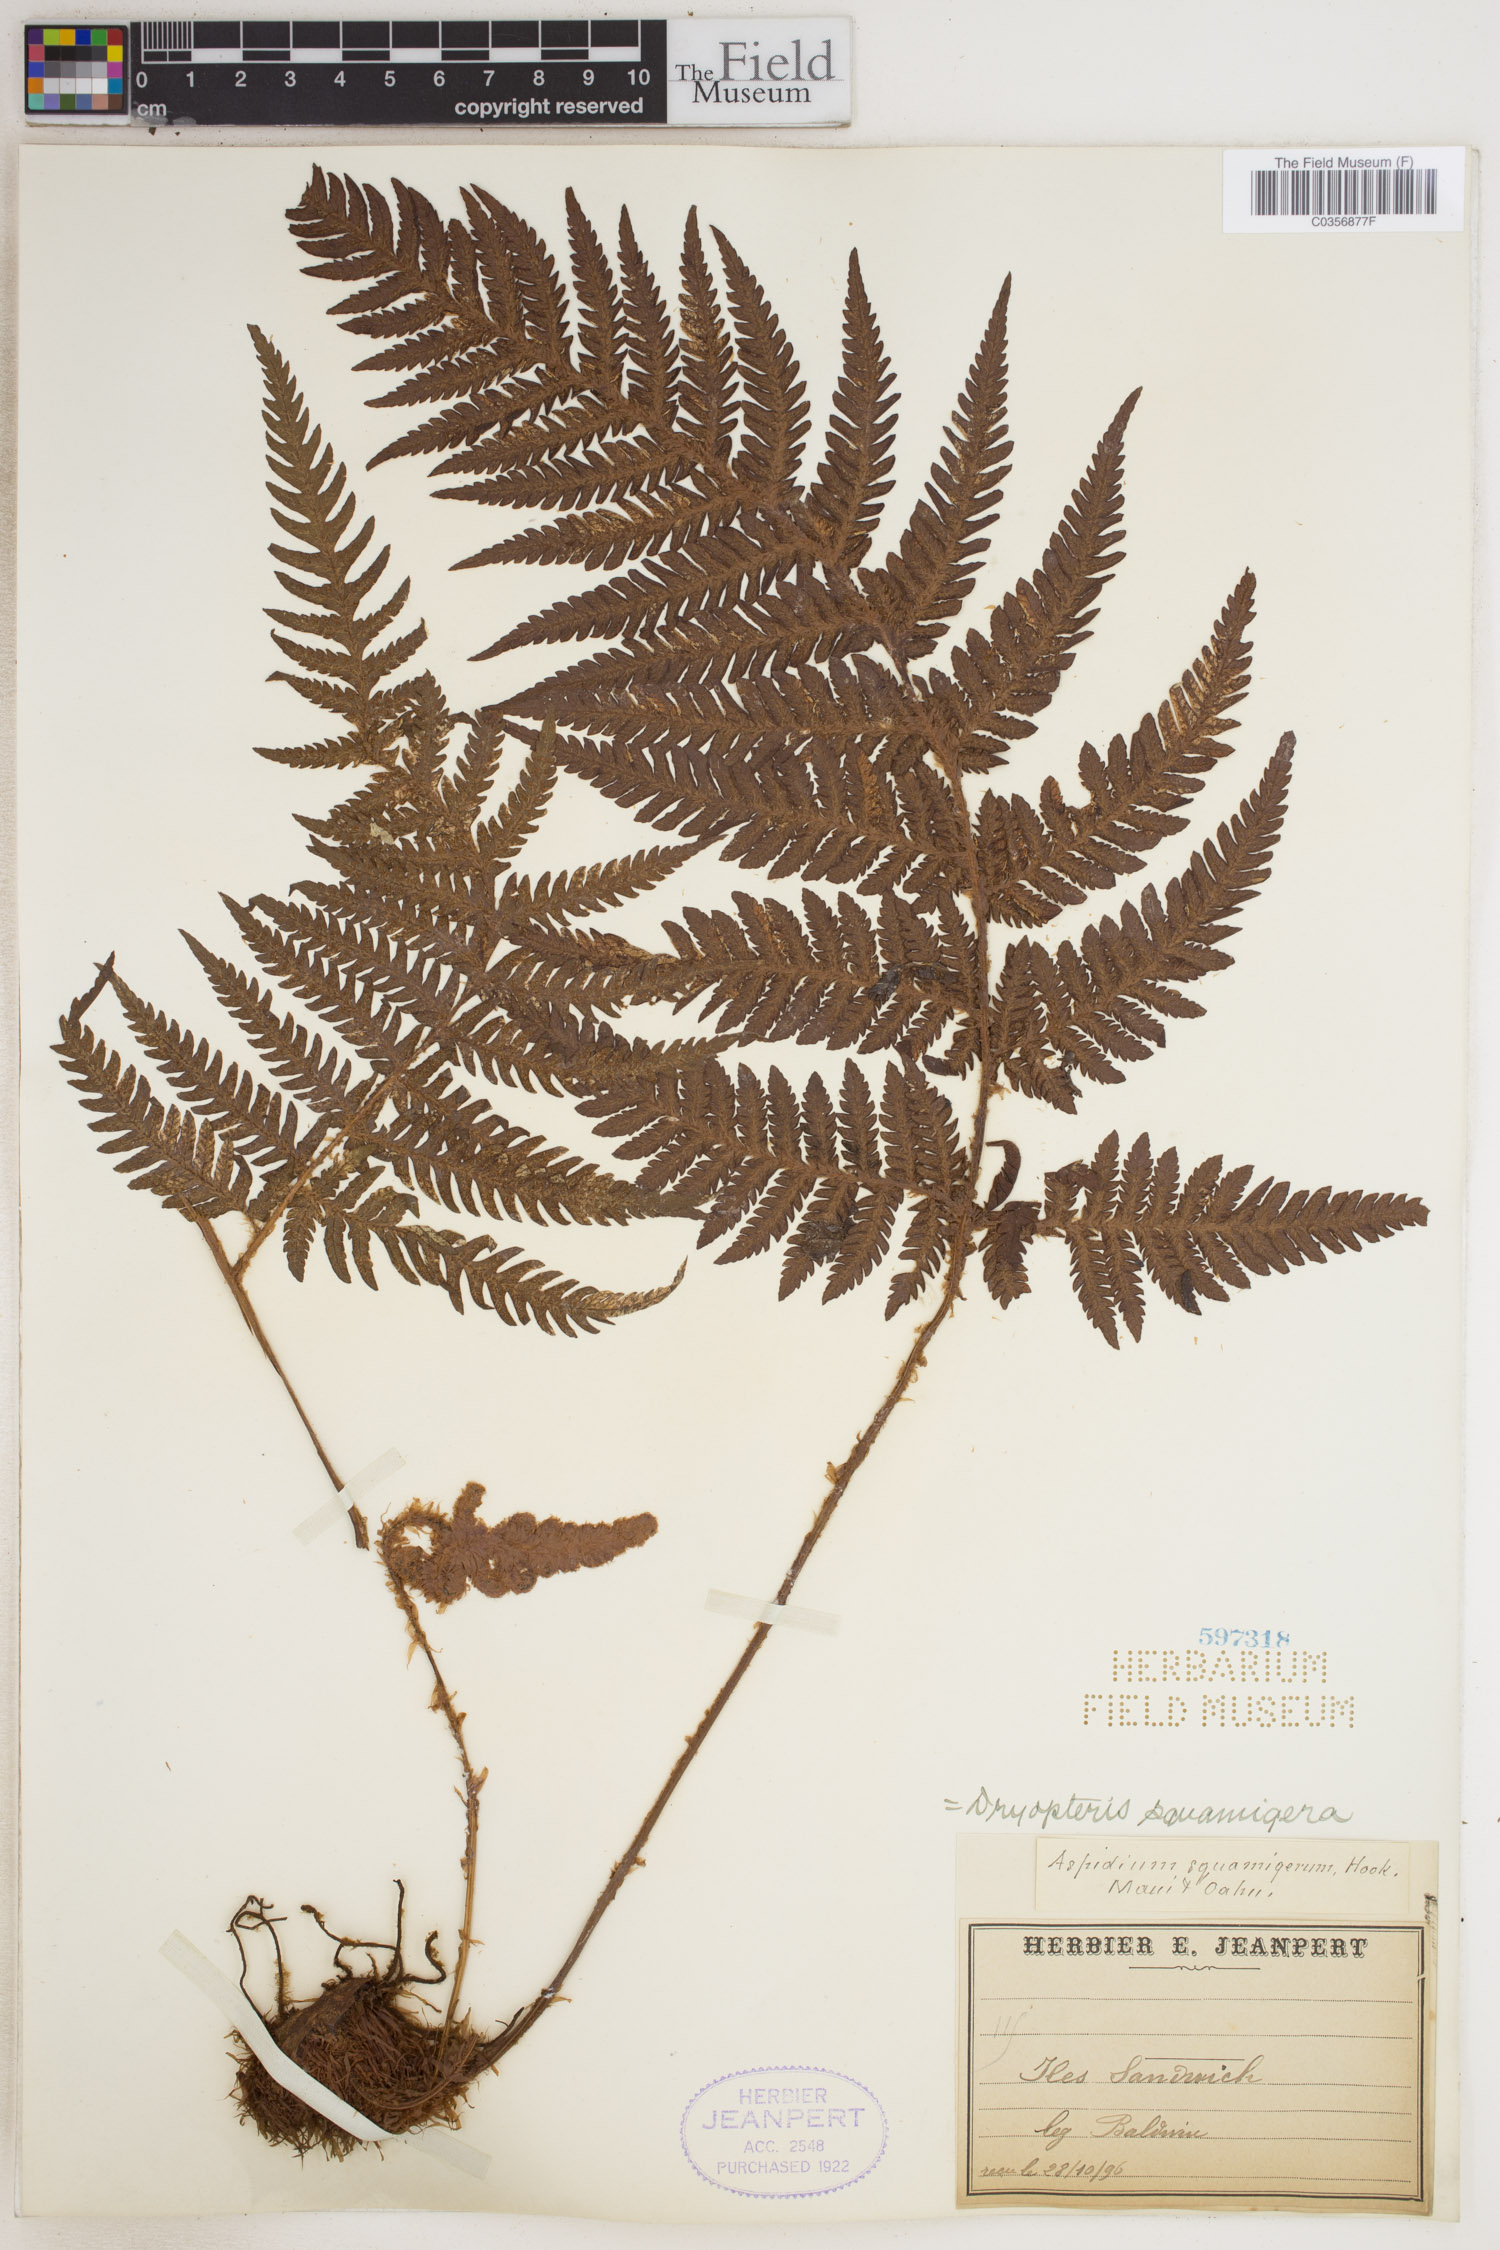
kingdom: Plantae
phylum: Tracheophyta
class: Polypodiopsida
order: Polypodiales
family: Dryopteridaceae
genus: Ctenitis
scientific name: Ctenitis squamigera
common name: Pacific lacefern
